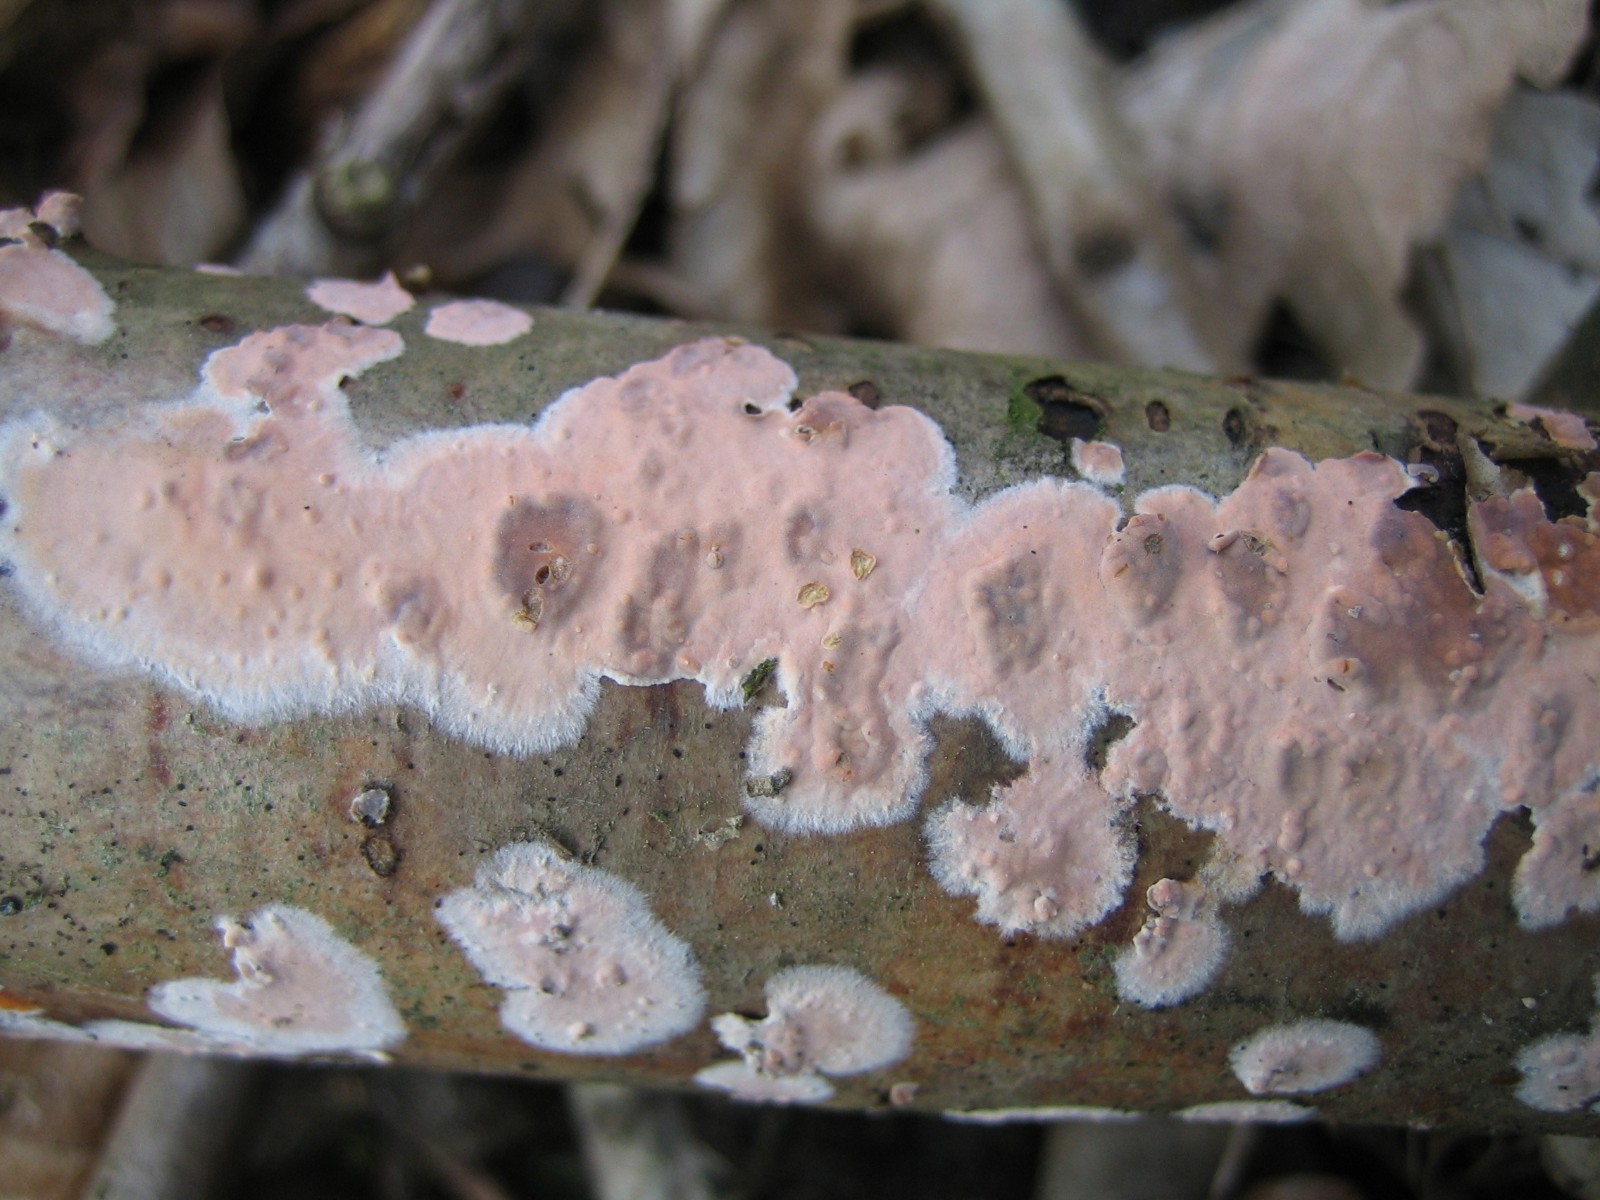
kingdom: Fungi
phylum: Basidiomycota
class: Agaricomycetes
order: Russulales
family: Peniophoraceae
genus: Peniophora
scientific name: Peniophora incarnata
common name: laksefarvet voksskind
